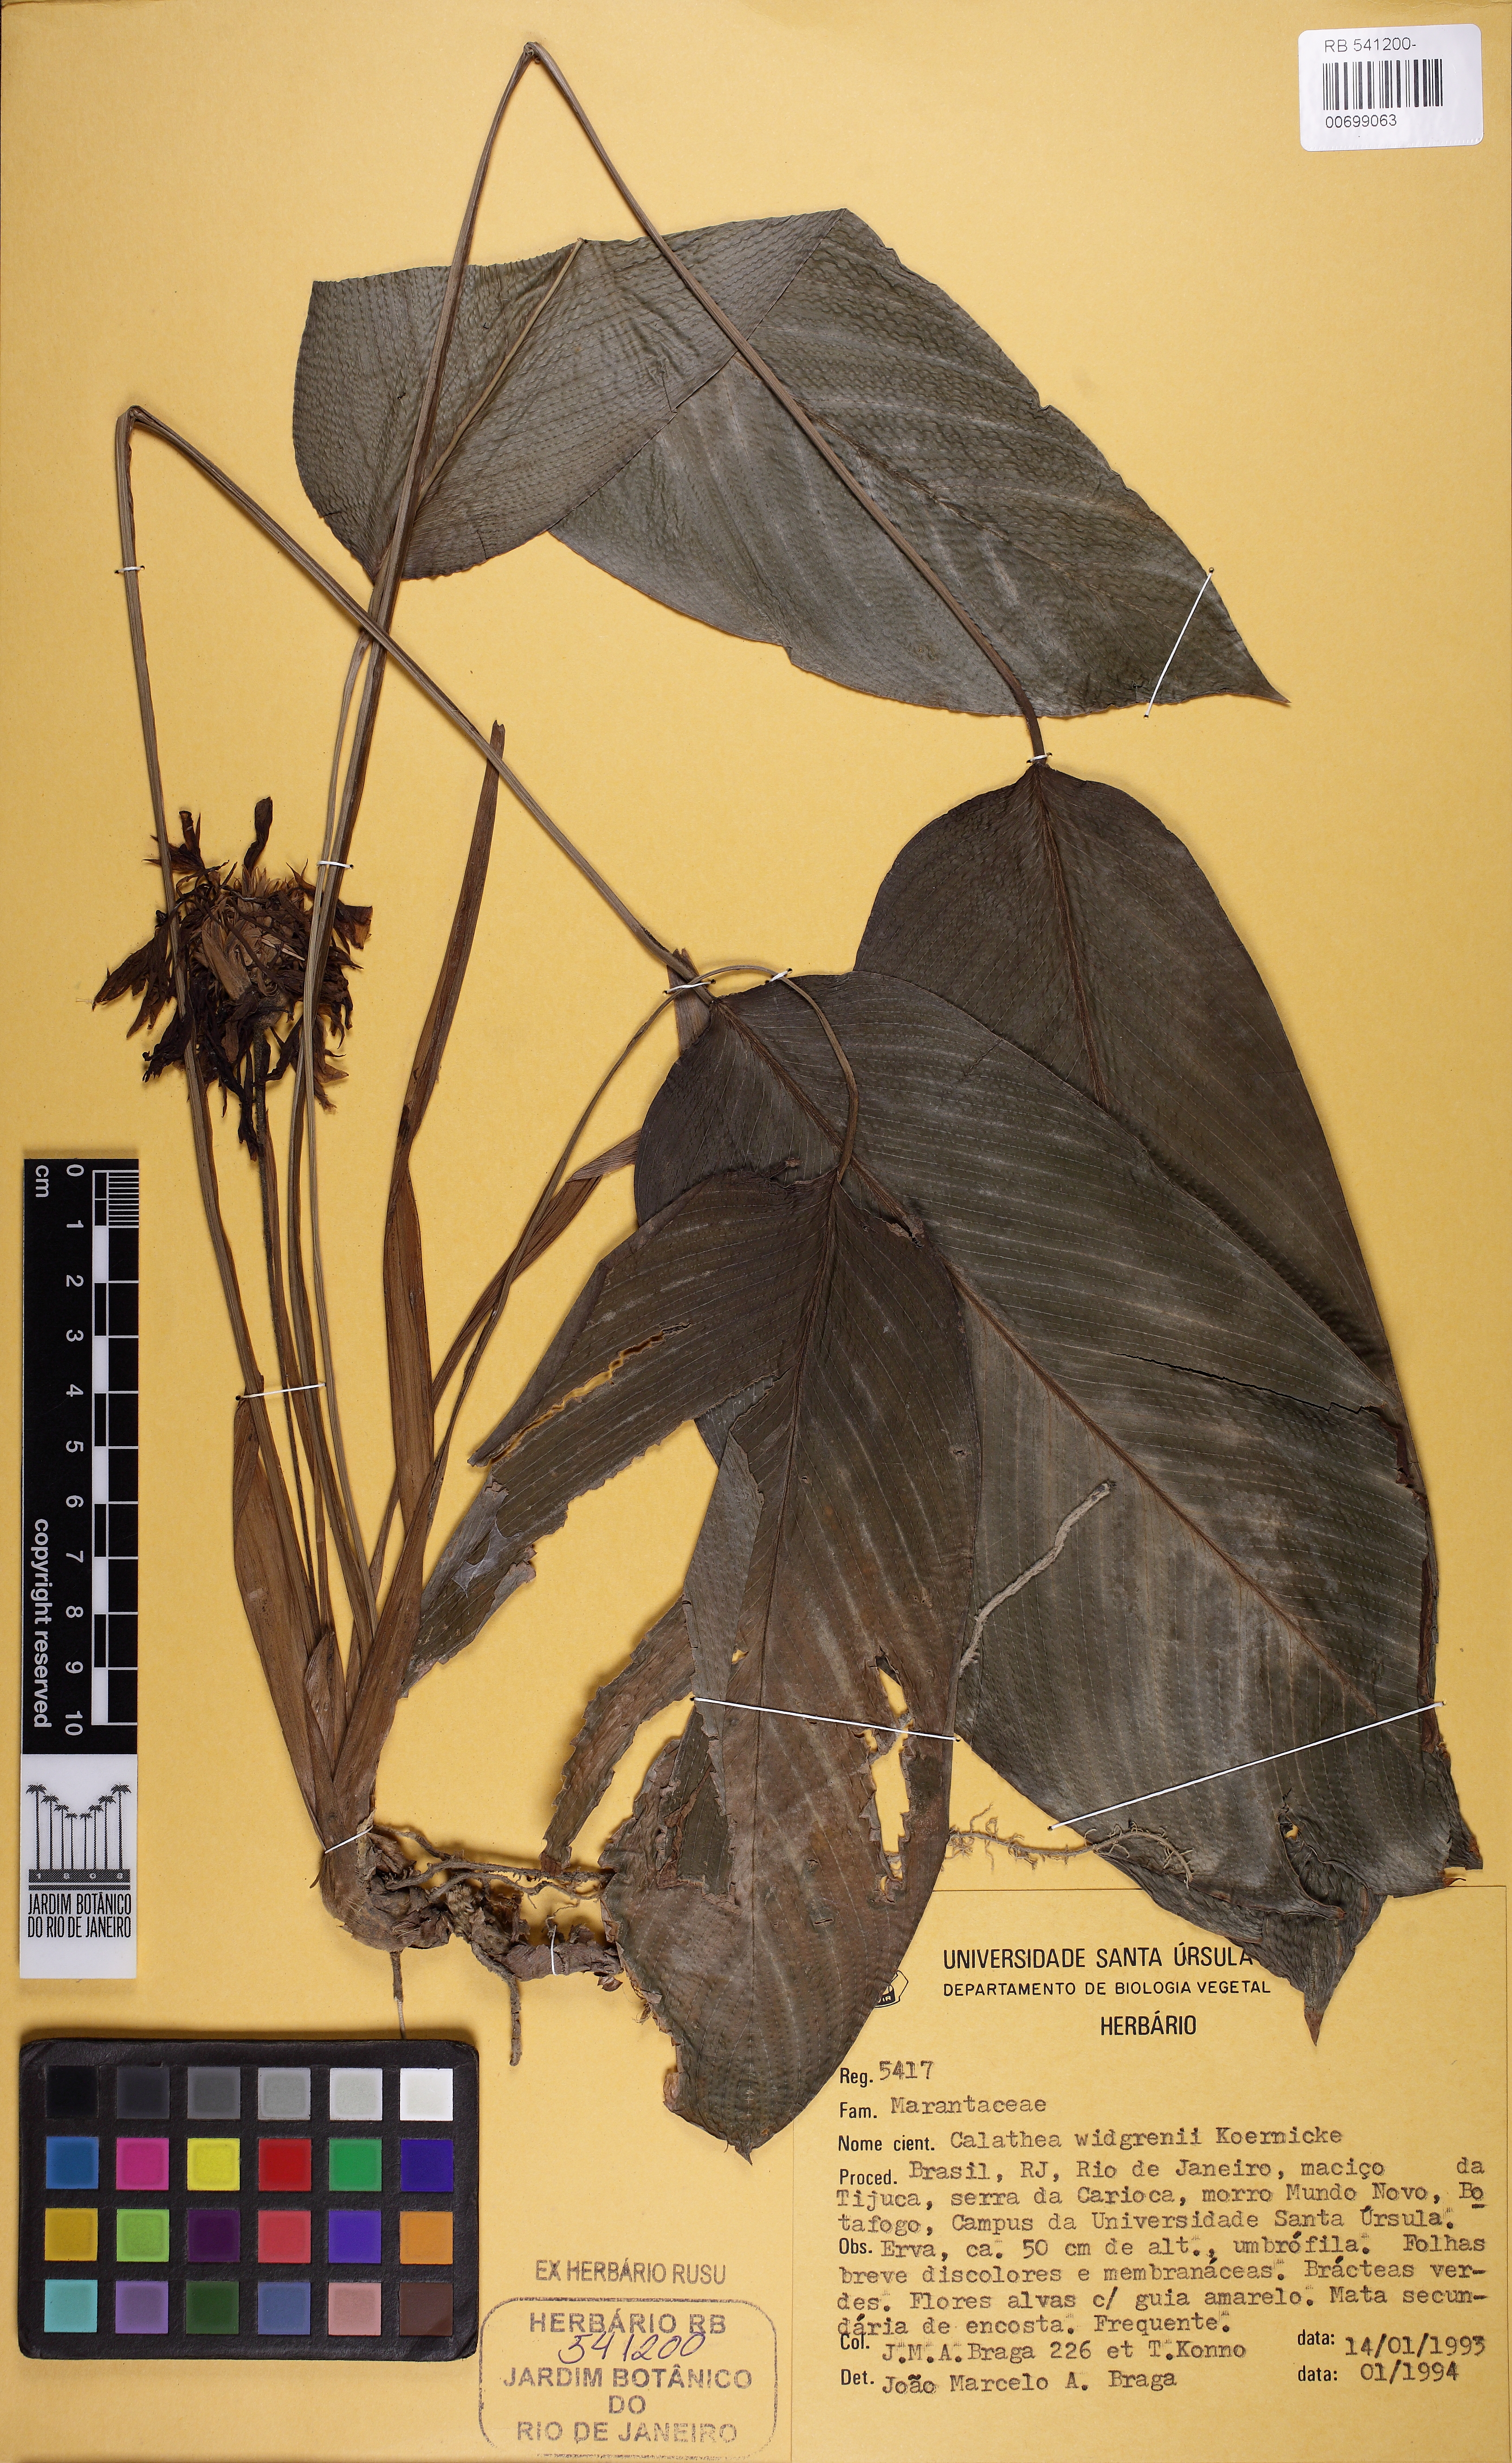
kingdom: Plantae
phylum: Tracheophyta
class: Liliopsida
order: Zingiberales
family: Marantaceae
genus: Goeppertia
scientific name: Goeppertia widgrenii
